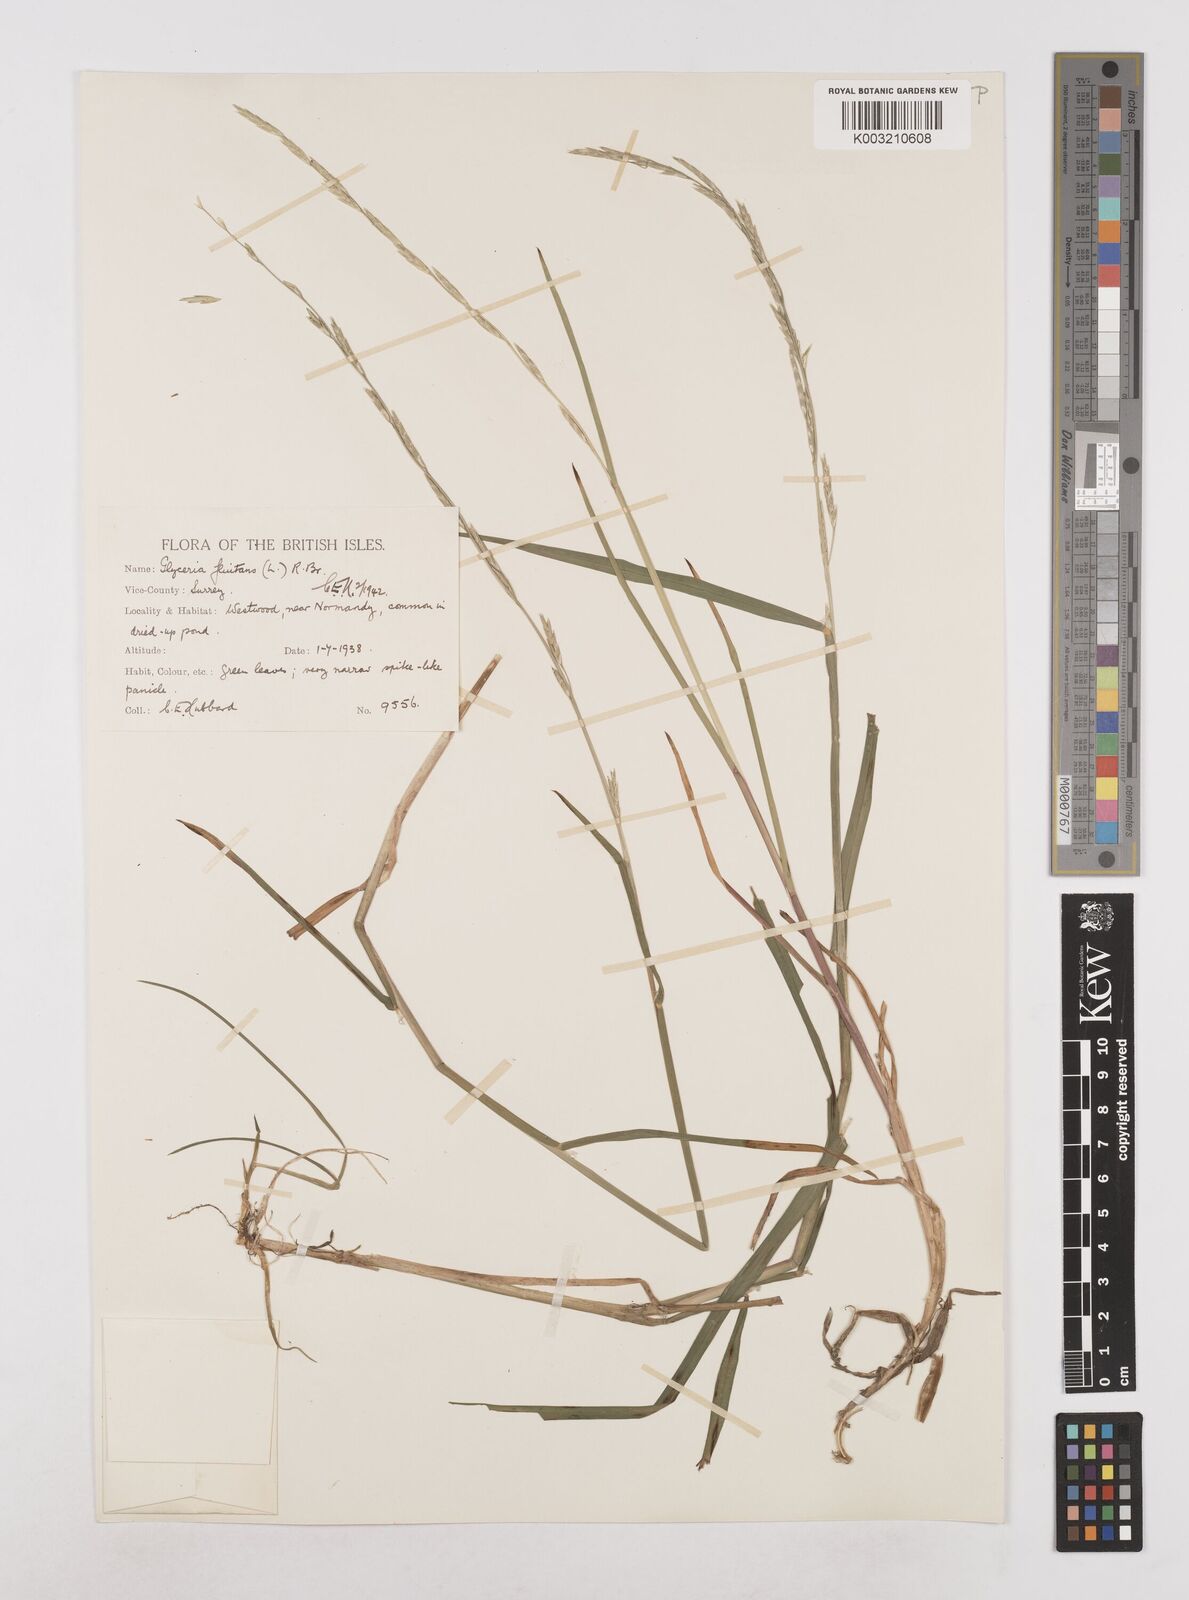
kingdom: Plantae
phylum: Tracheophyta
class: Liliopsida
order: Poales
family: Poaceae
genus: Glyceria
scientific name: Glyceria fluitans
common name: Floating sweet-grass
